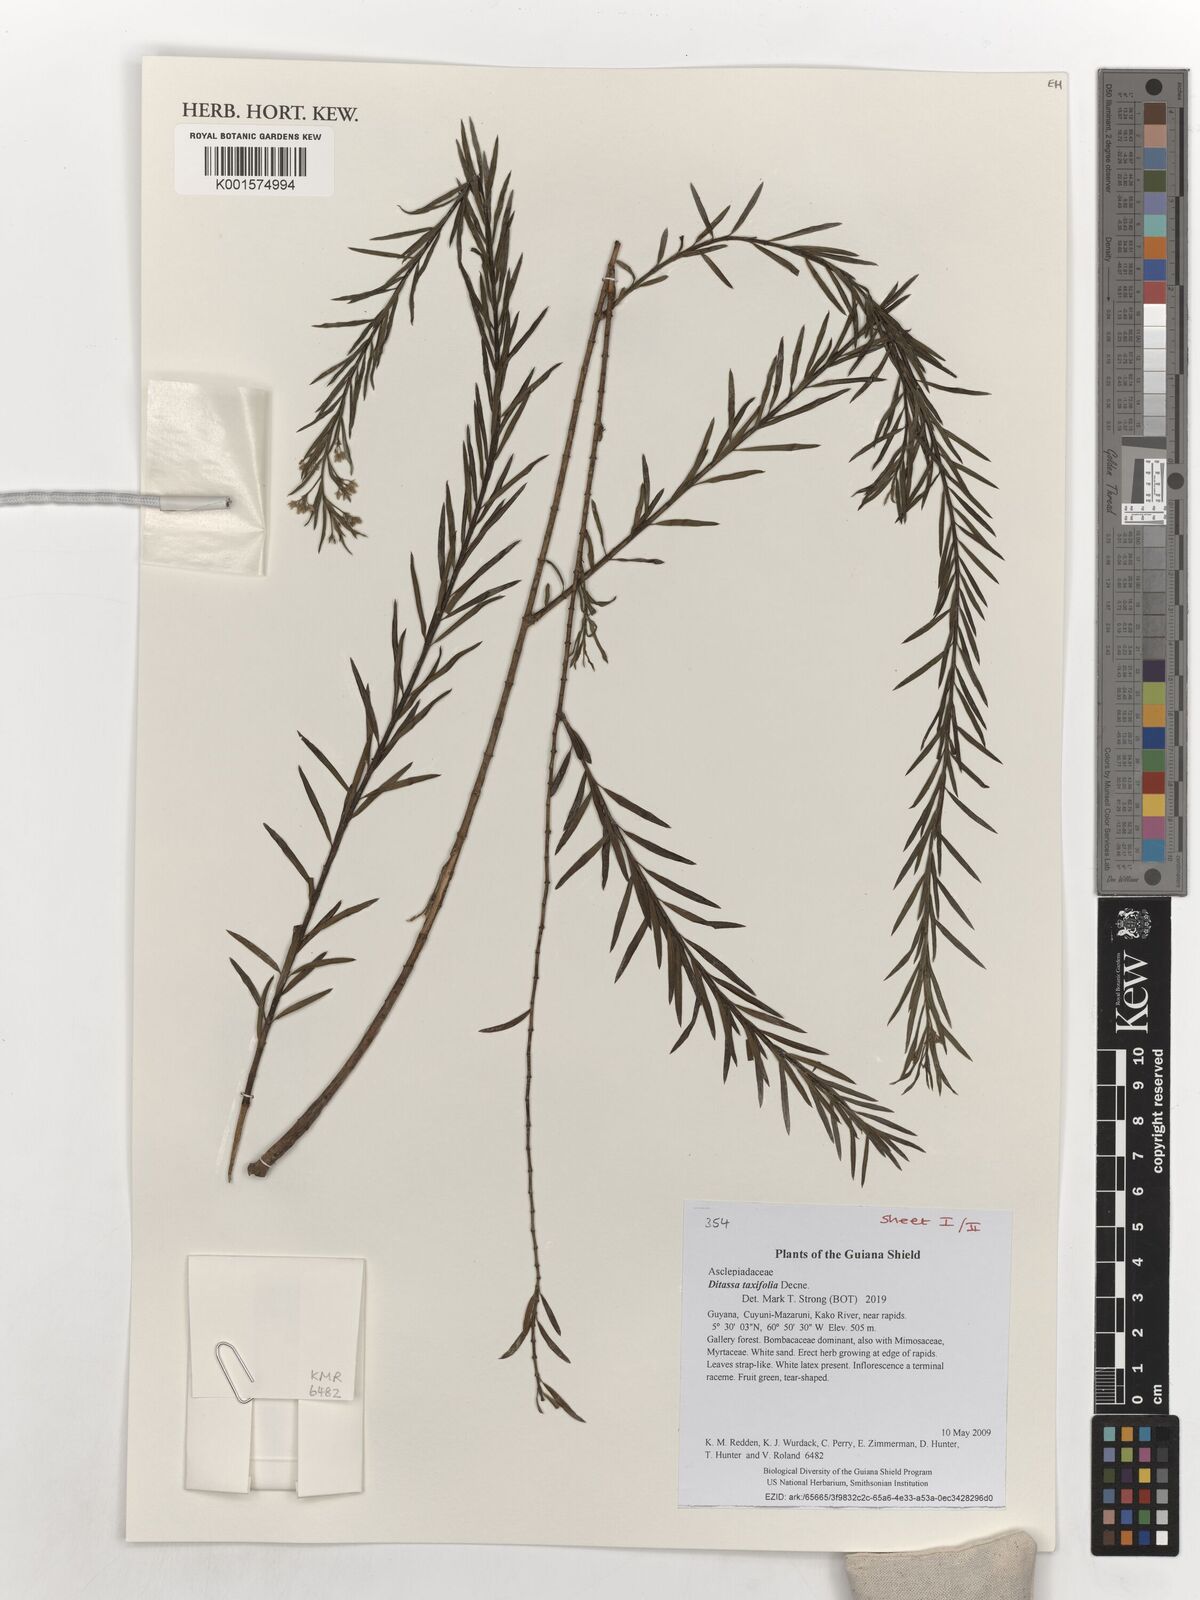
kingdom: Plantae
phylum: Tracheophyta
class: Magnoliopsida
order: Gentianales
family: Apocynaceae
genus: Ditassa
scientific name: Ditassa taxifolia
